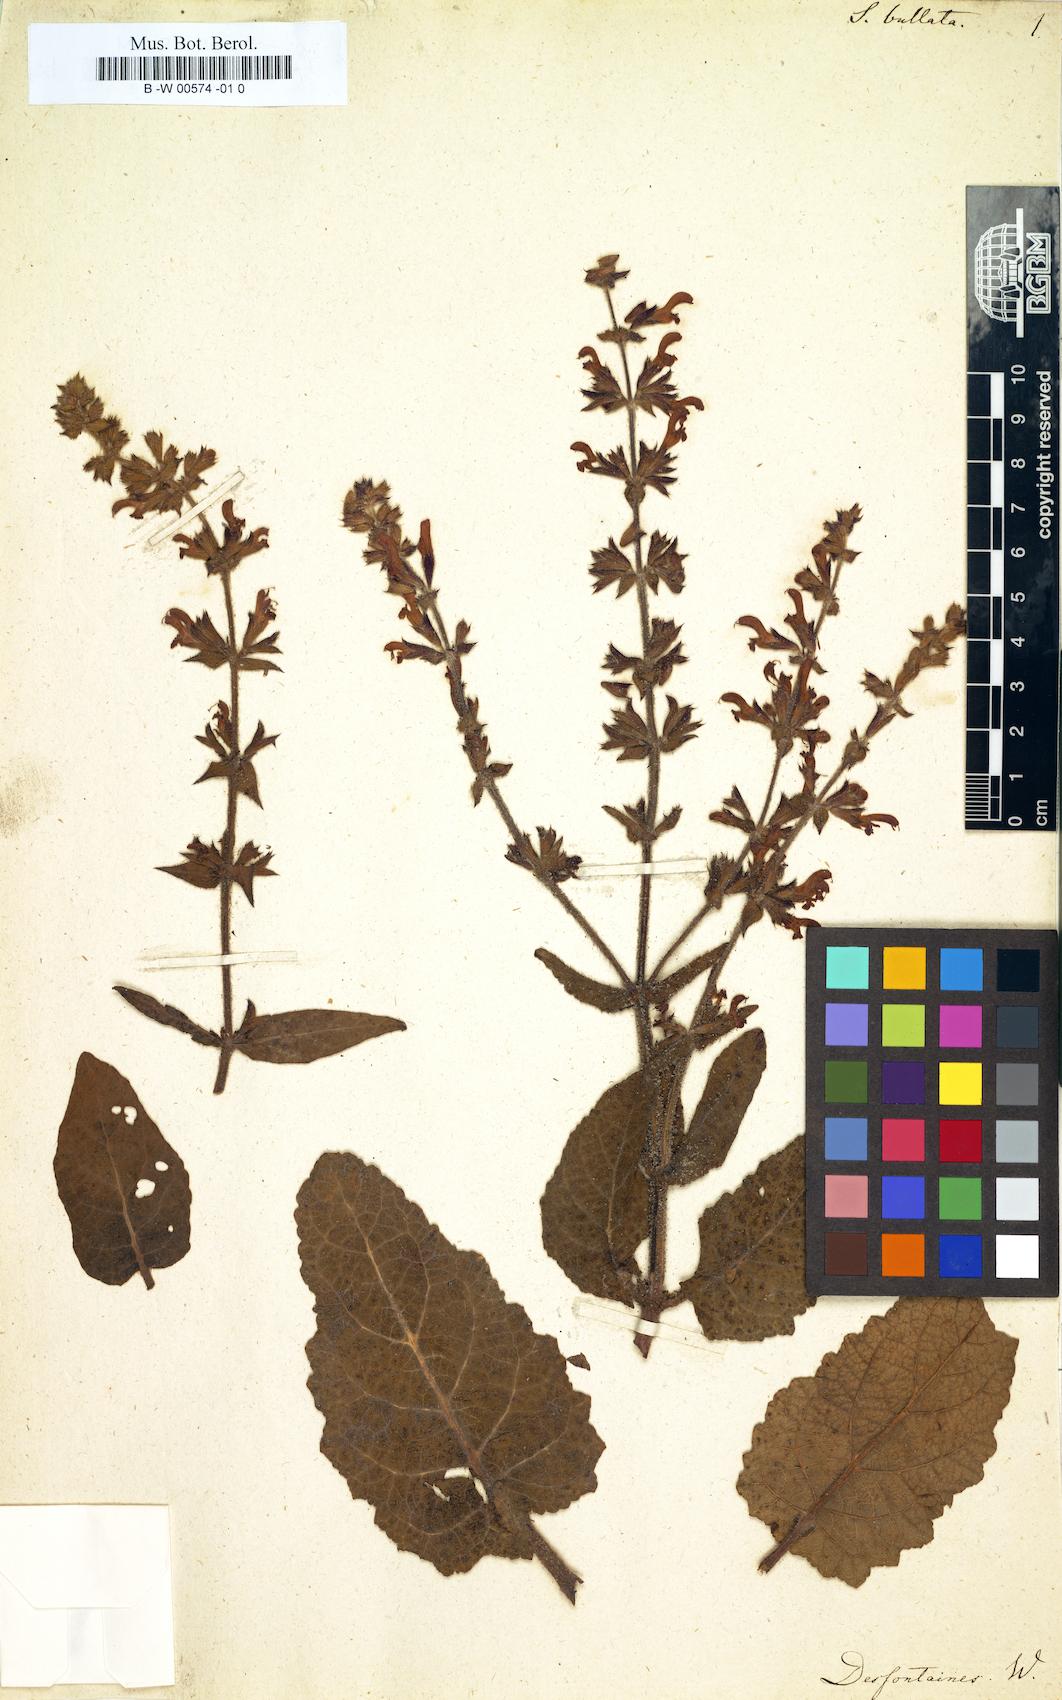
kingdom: Plantae
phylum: Tracheophyta
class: Magnoliopsida
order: Lamiales
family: Lamiaceae
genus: Salvia
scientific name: Salvia
